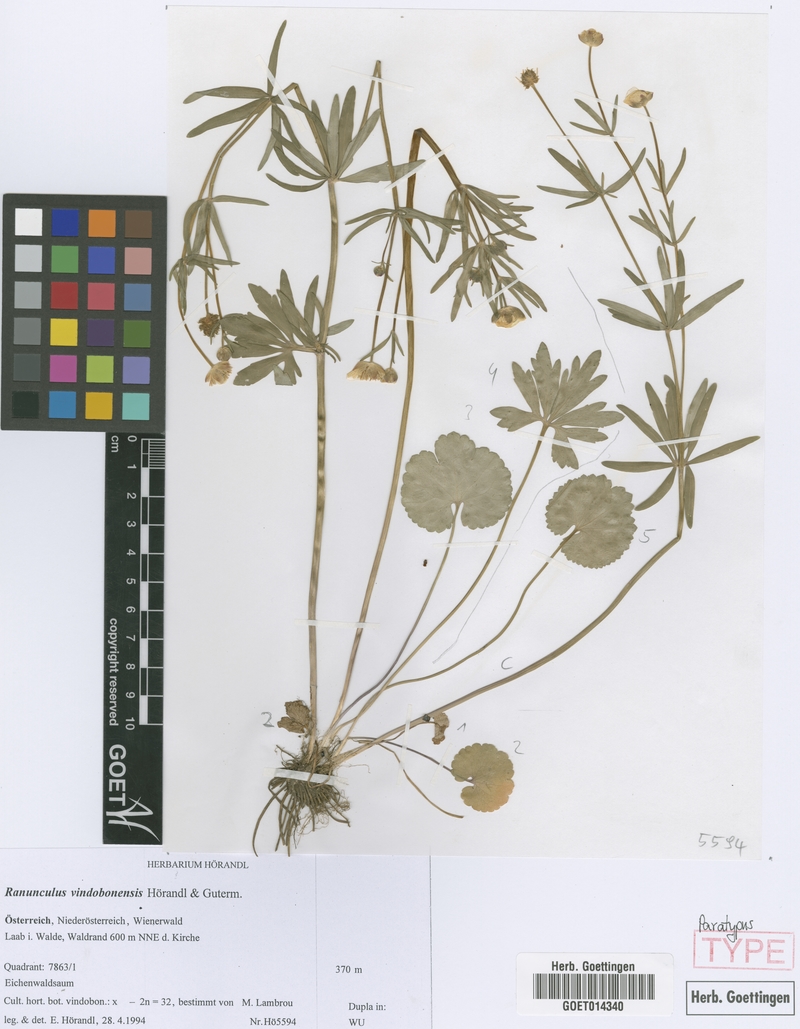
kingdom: Plantae
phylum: Tracheophyta
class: Magnoliopsida
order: Ranunculales
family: Ranunculaceae
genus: Ranunculus
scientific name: Ranunculus vindobonensis
